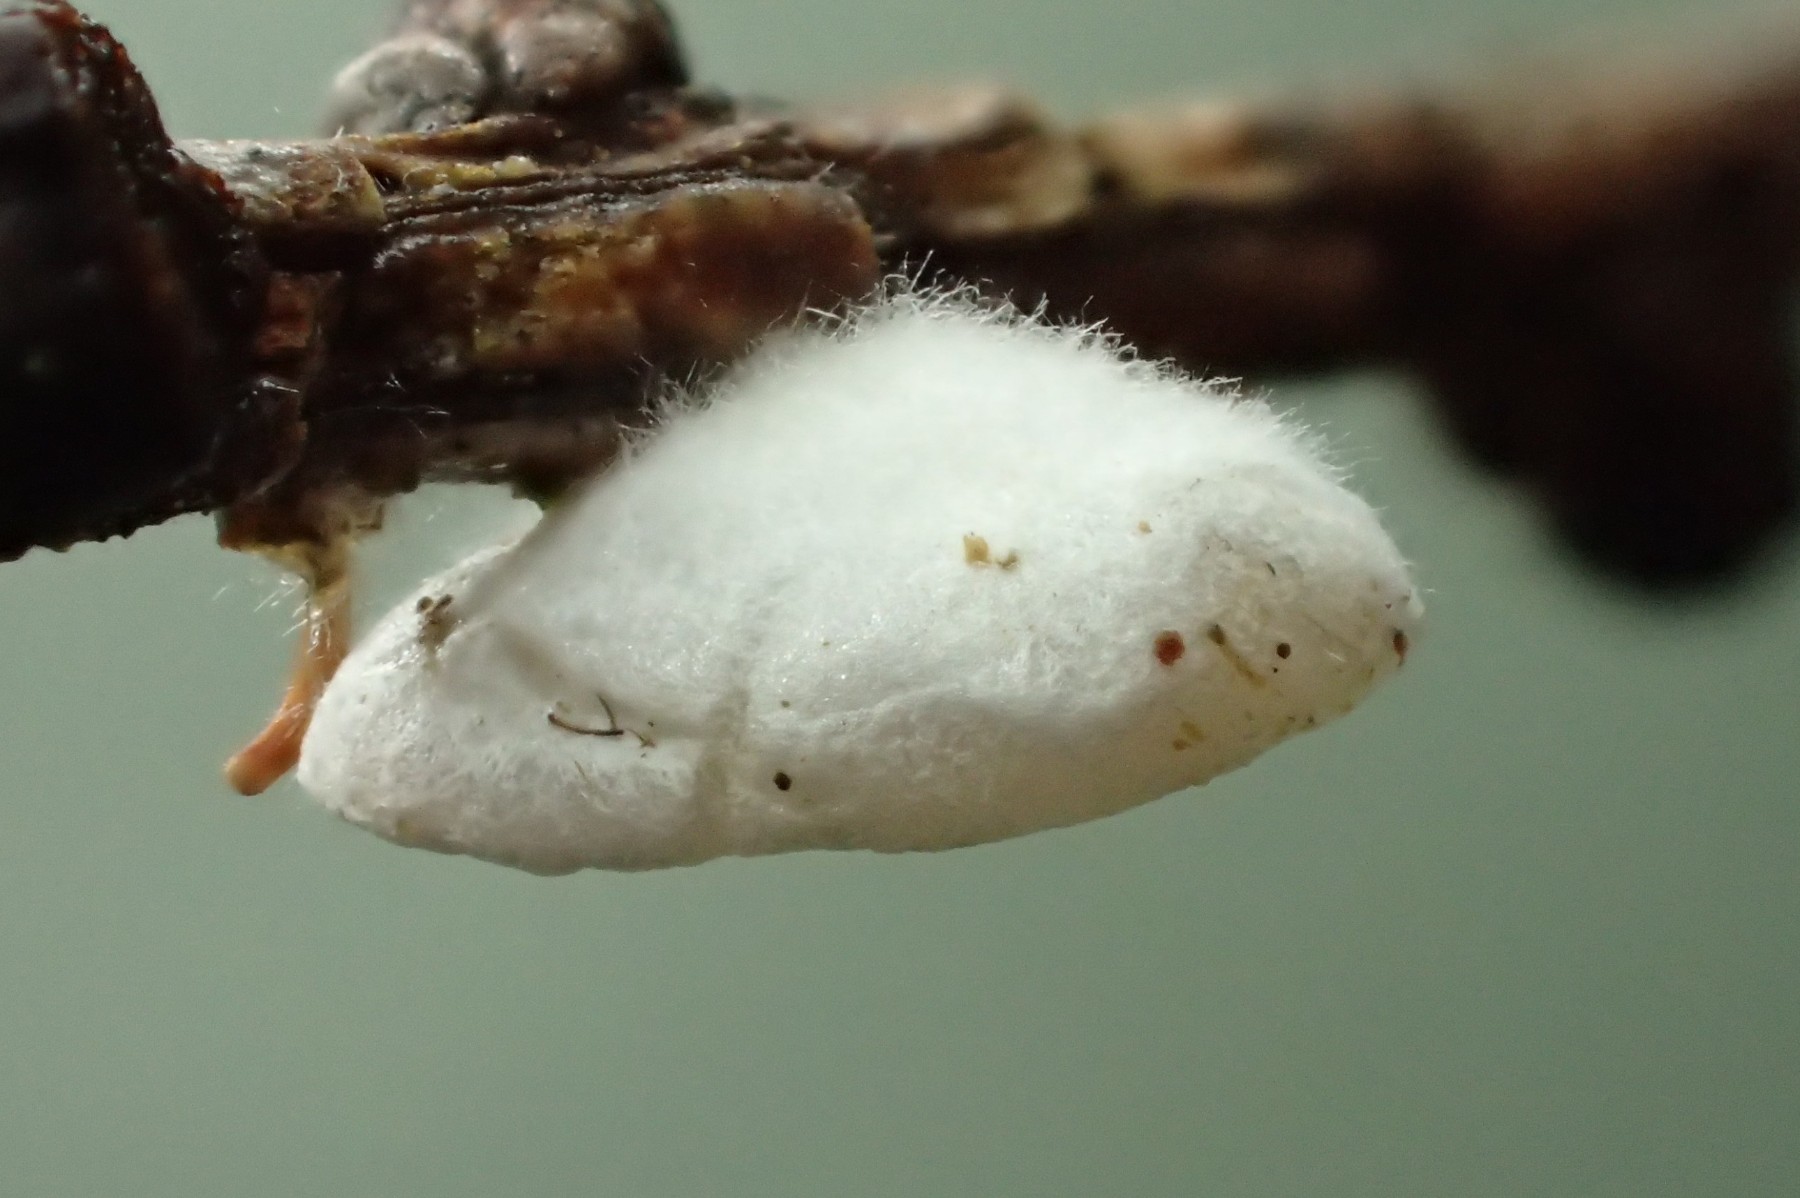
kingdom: Fungi
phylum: Basidiomycota
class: Agaricomycetes
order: Agaricales
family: Crepidotaceae
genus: Crepidotus
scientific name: Crepidotus epibryus
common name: førne-muslingesvamp
